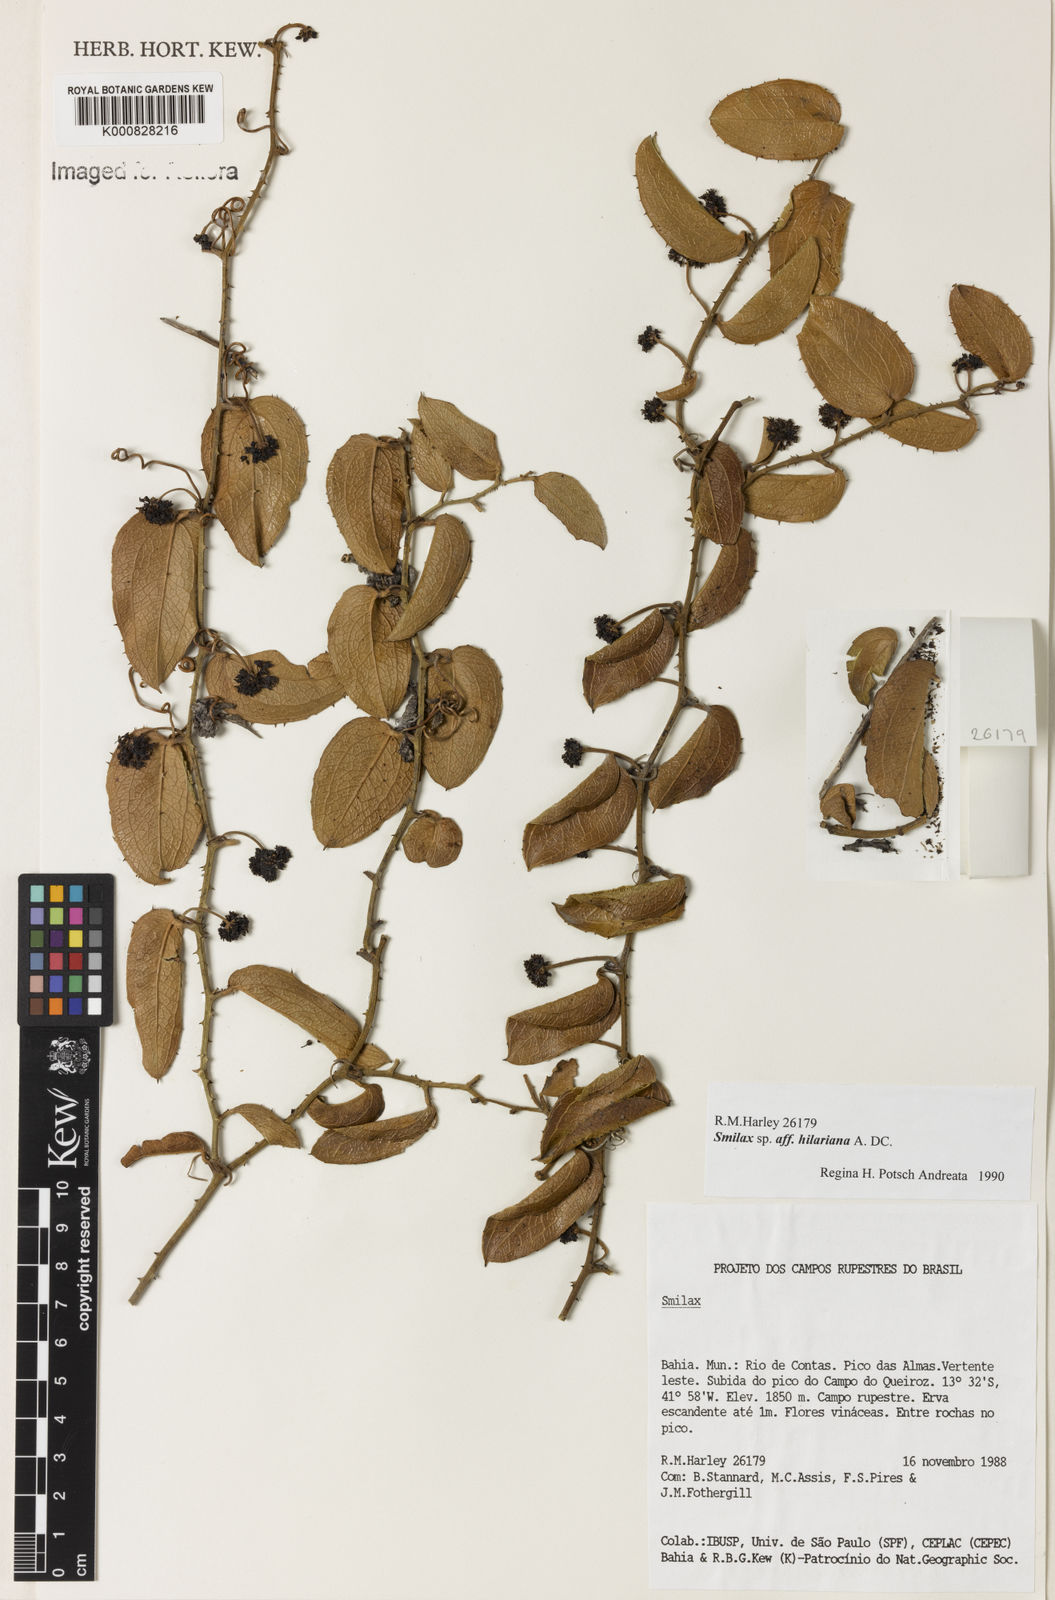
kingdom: Plantae
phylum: Tracheophyta
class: Liliopsida
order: Liliales
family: Smilacaceae
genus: Smilax
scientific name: Smilax hilariana
